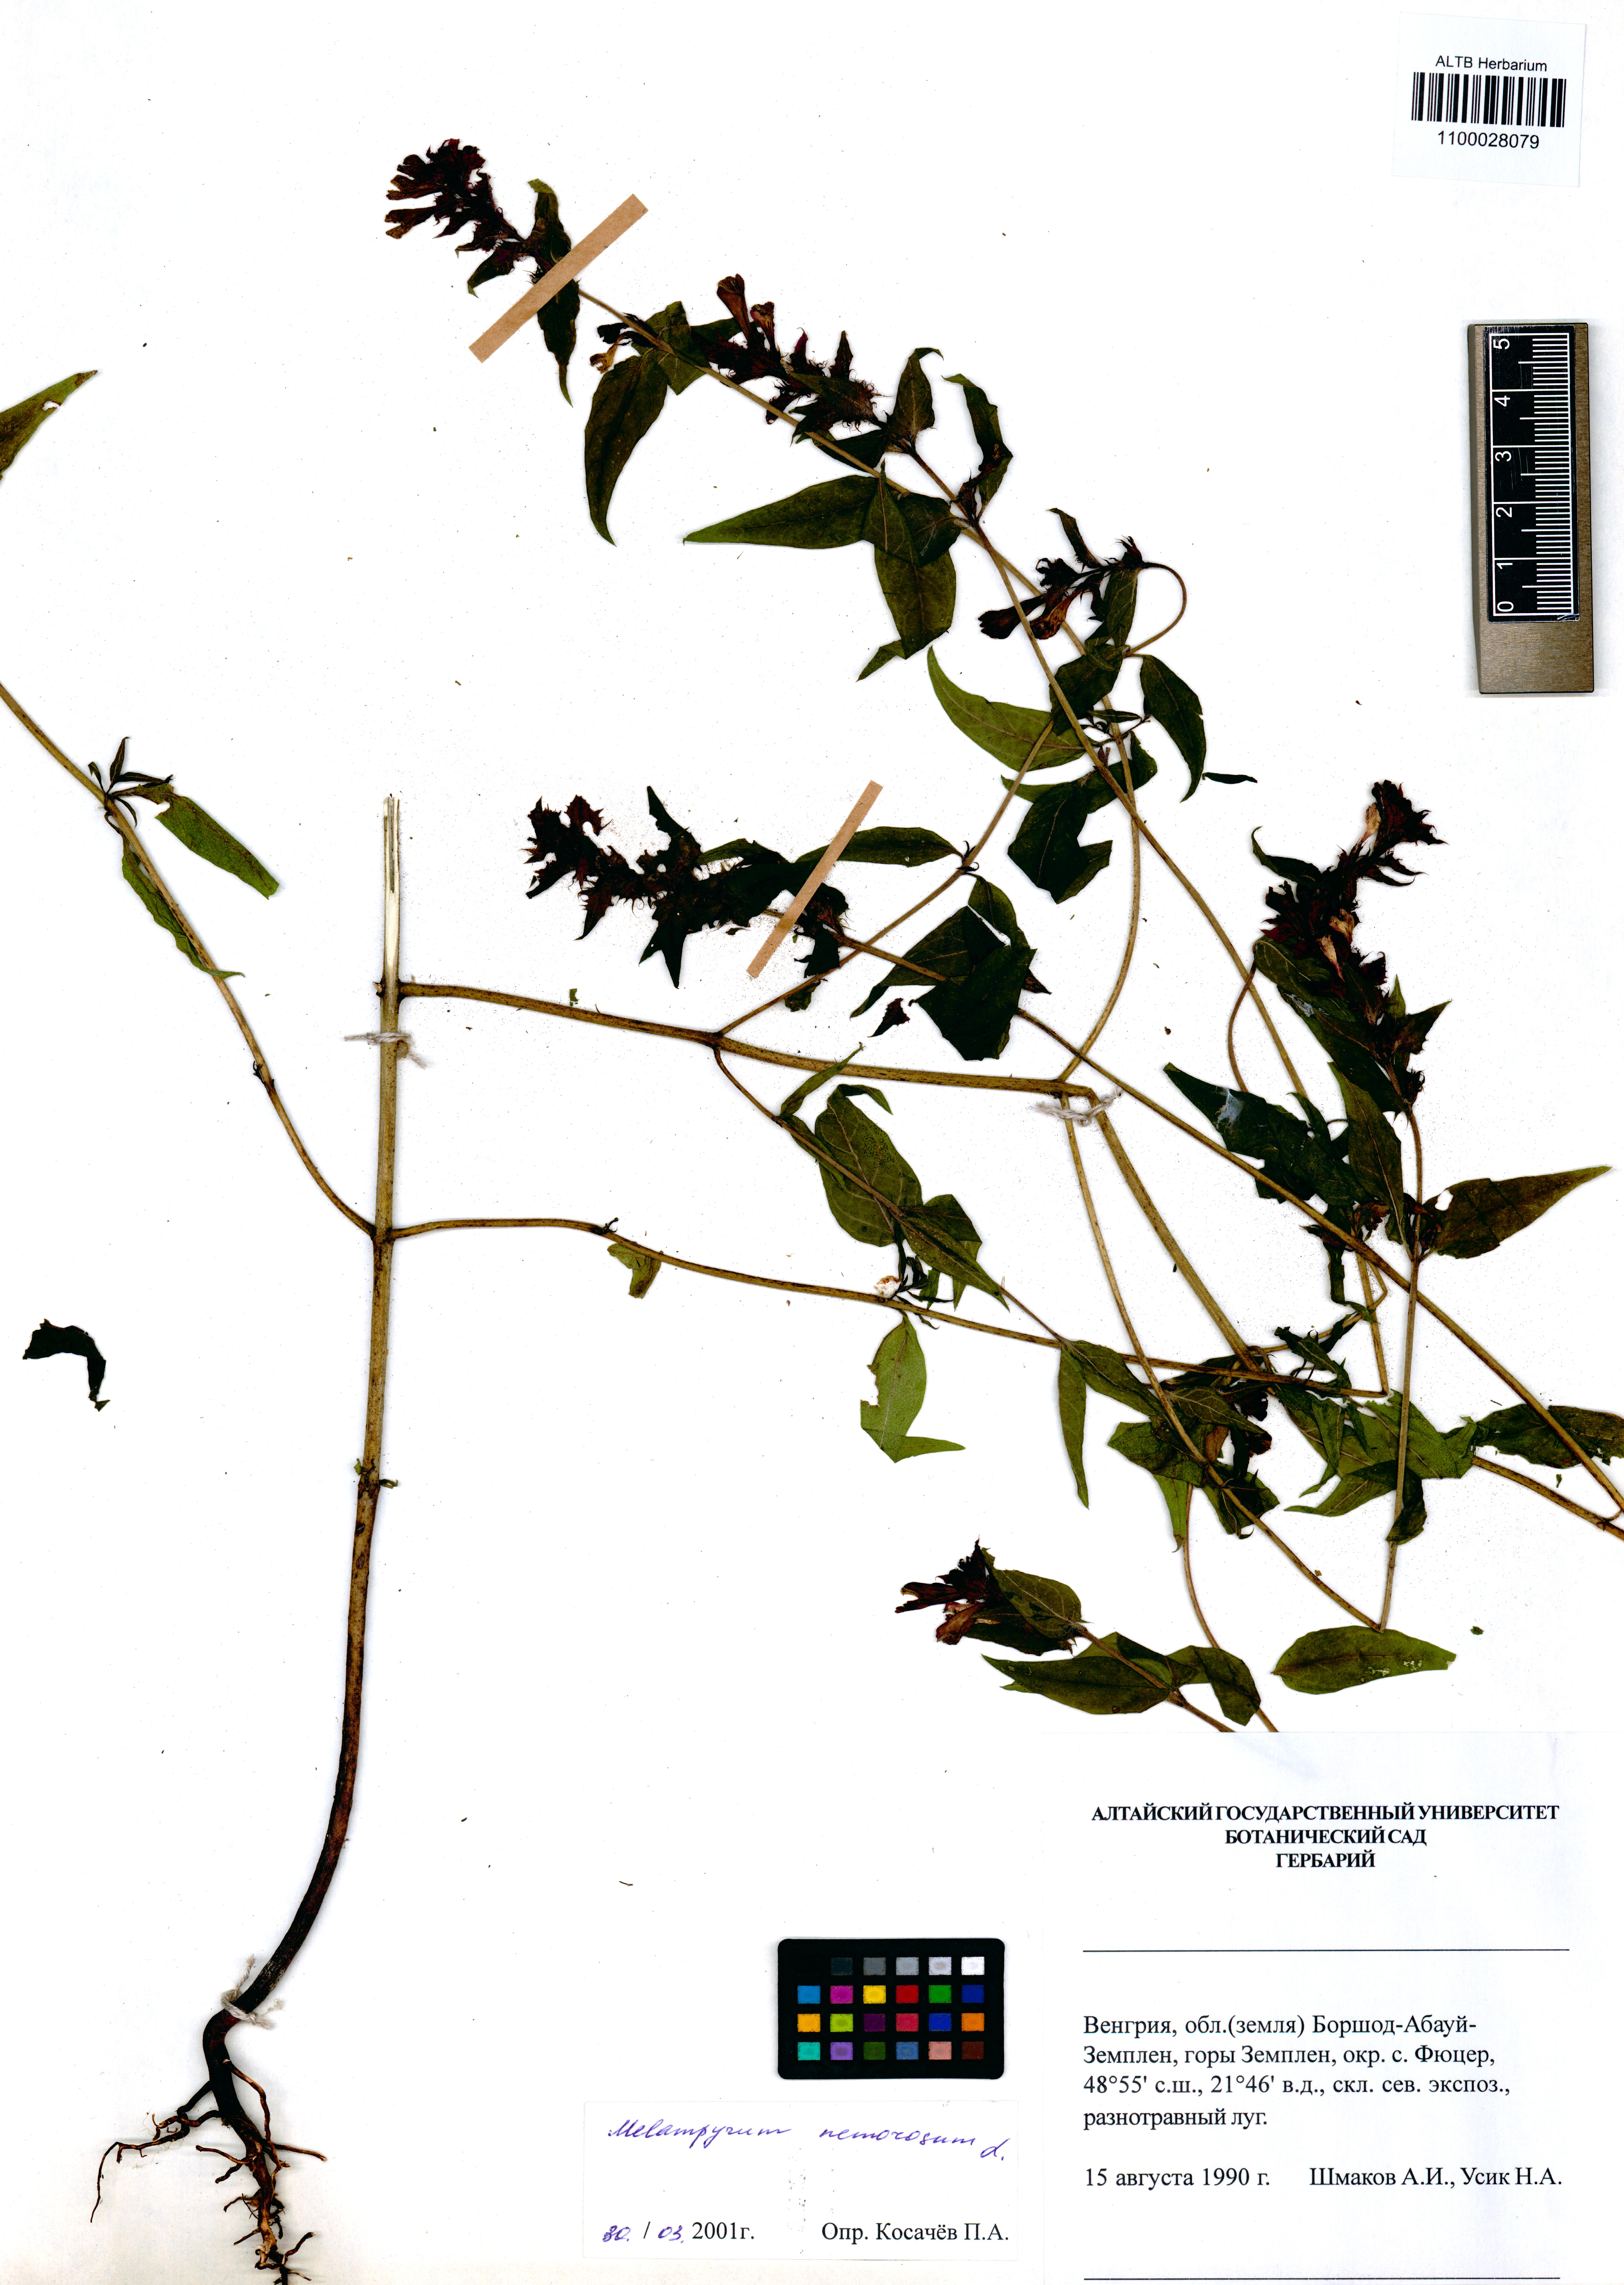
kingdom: Plantae
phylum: Tracheophyta
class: Magnoliopsida
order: Lamiales
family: Orobanchaceae
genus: Melampyrum
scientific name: Melampyrum nemorosum
